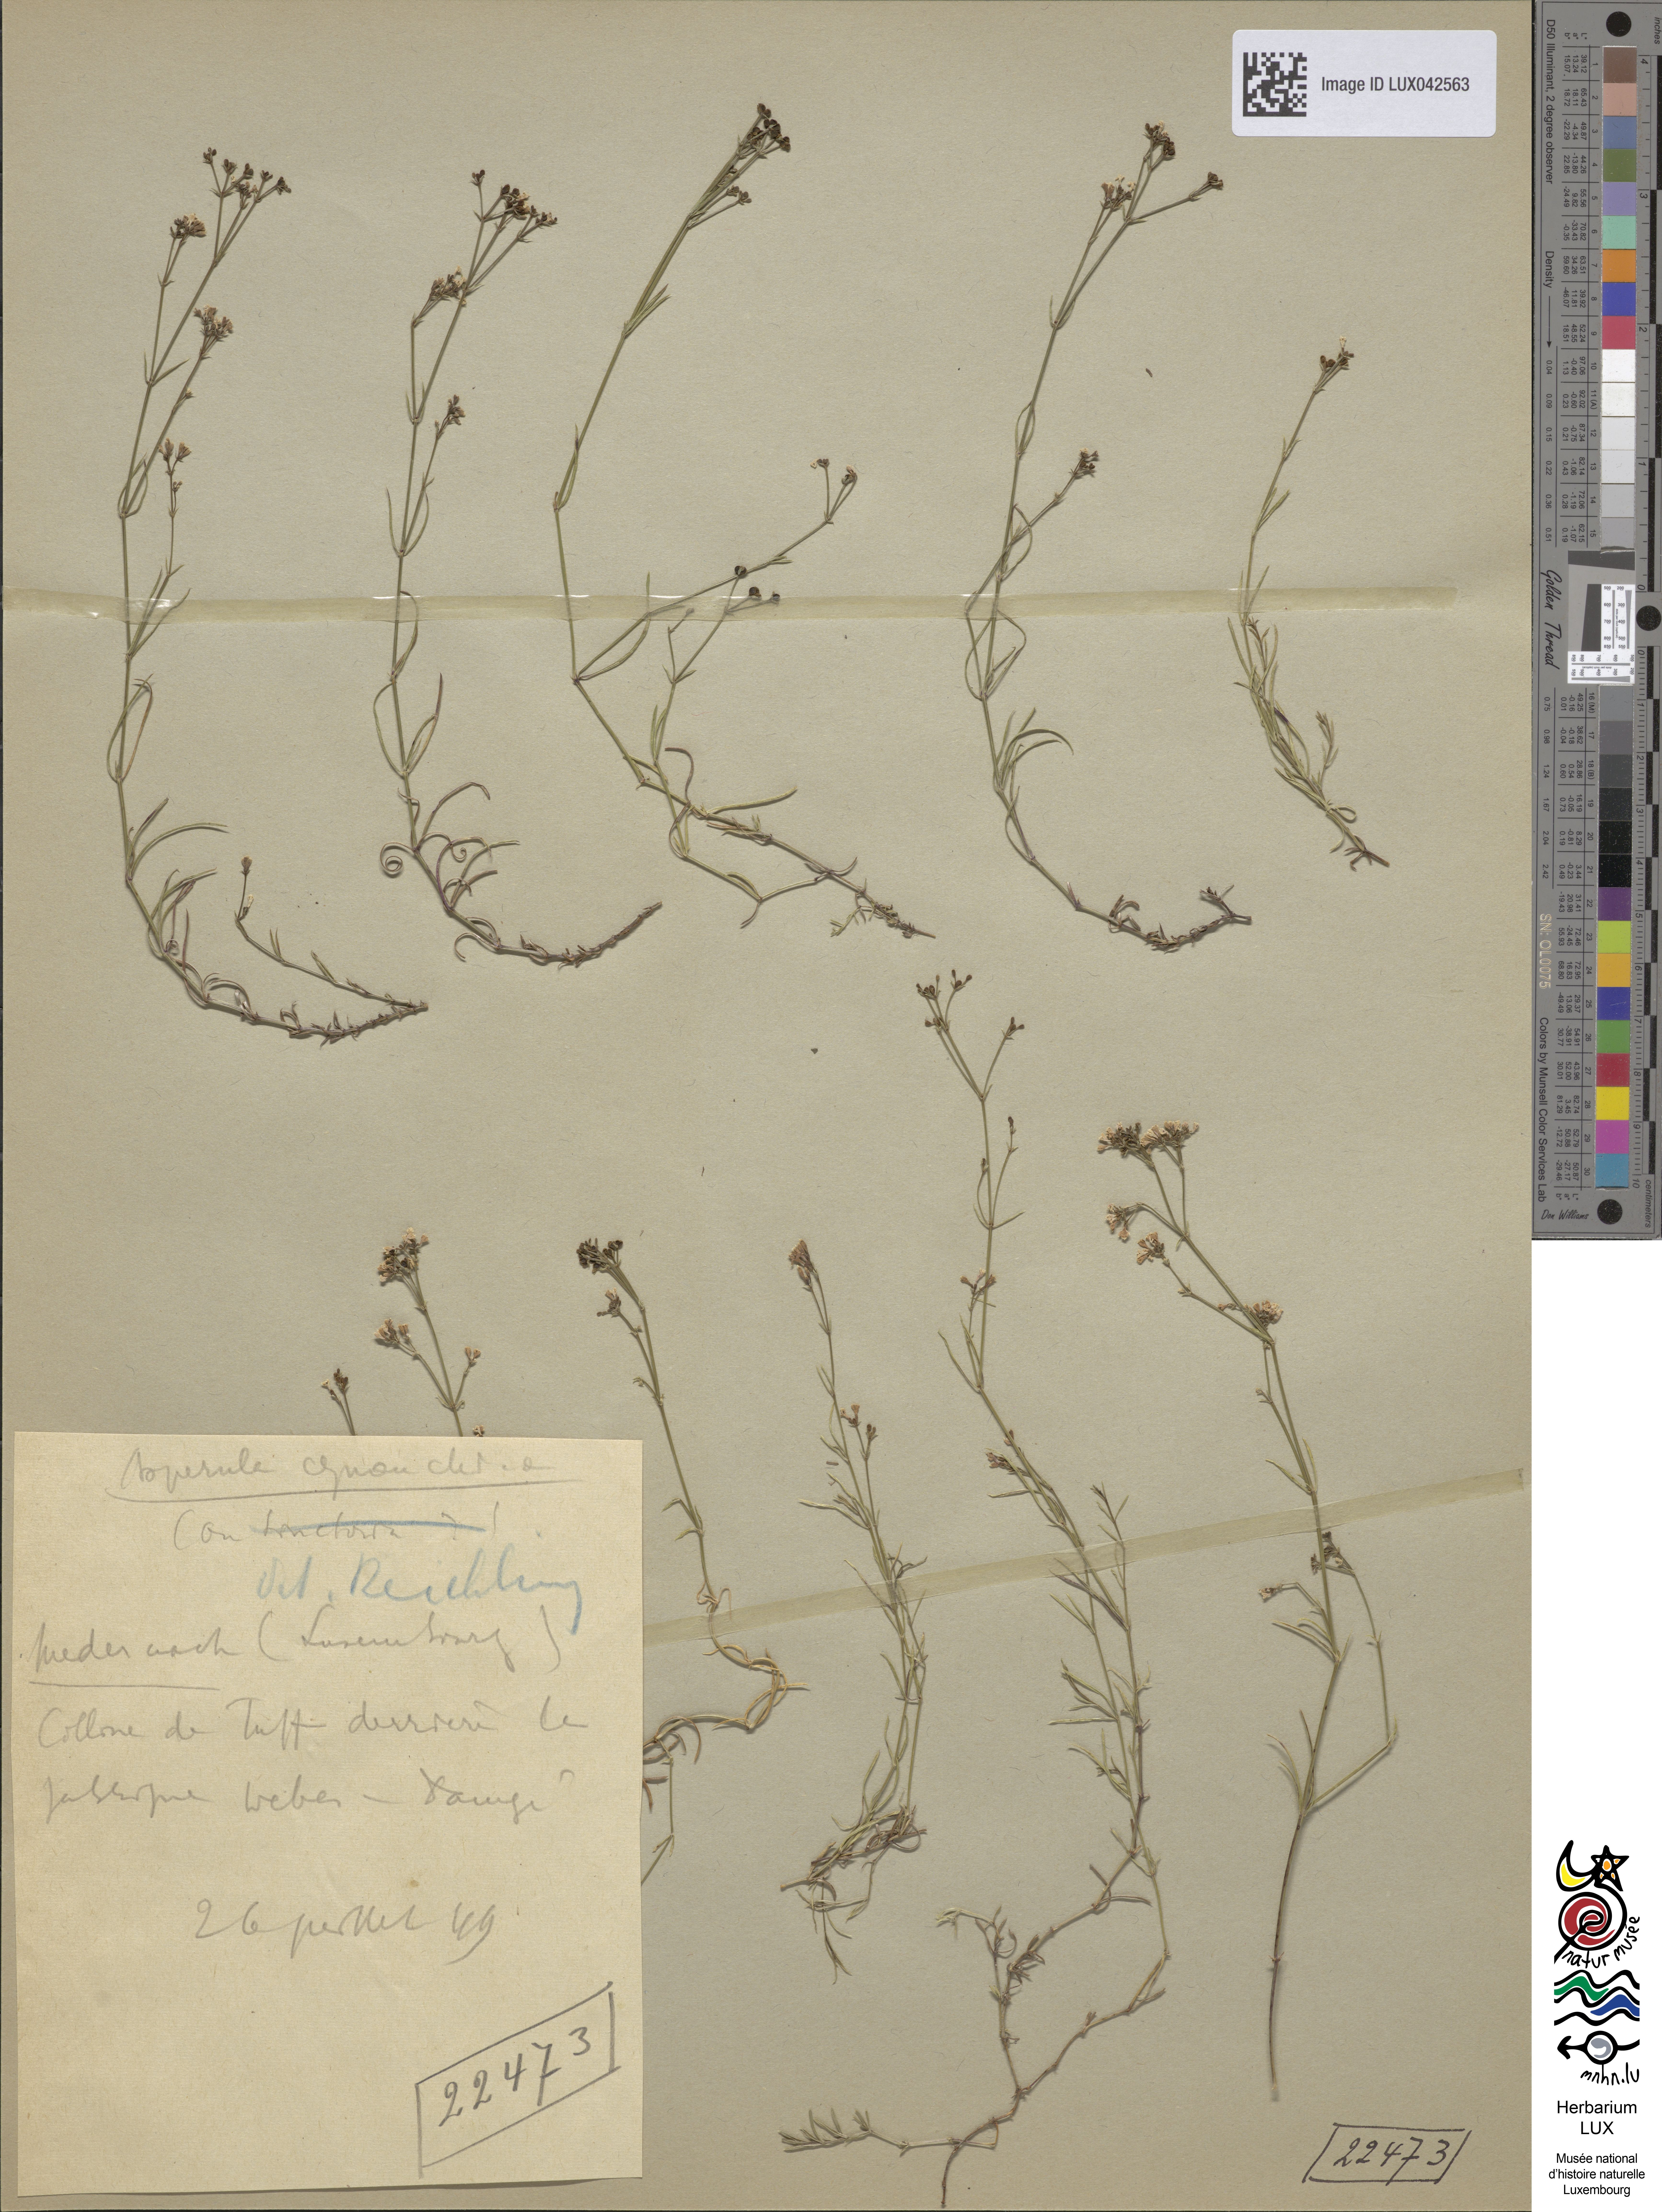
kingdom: Plantae
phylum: Tracheophyta
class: Magnoliopsida
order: Gentianales
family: Rubiaceae
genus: Cynanchica
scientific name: Cynanchica pyrenaica
